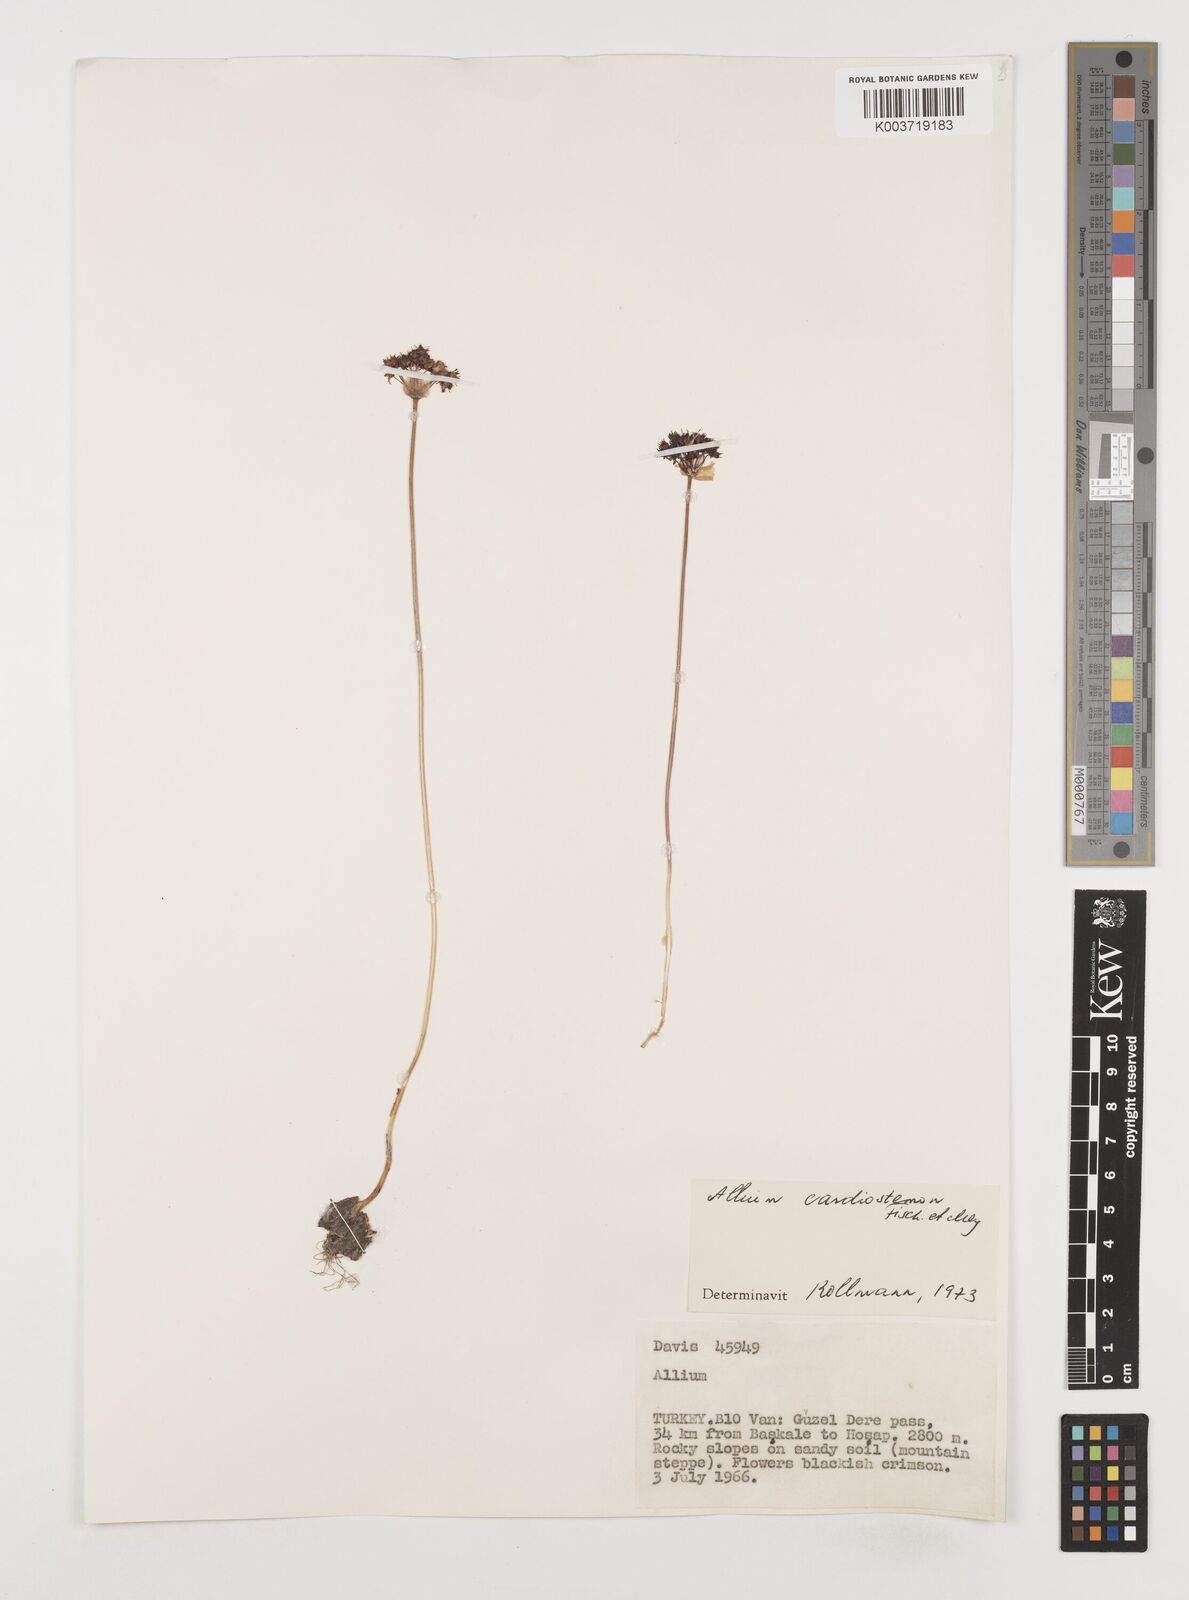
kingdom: Plantae
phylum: Tracheophyta
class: Liliopsida
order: Asparagales
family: Amaryllidaceae
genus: Allium
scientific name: Allium cardiostemon
